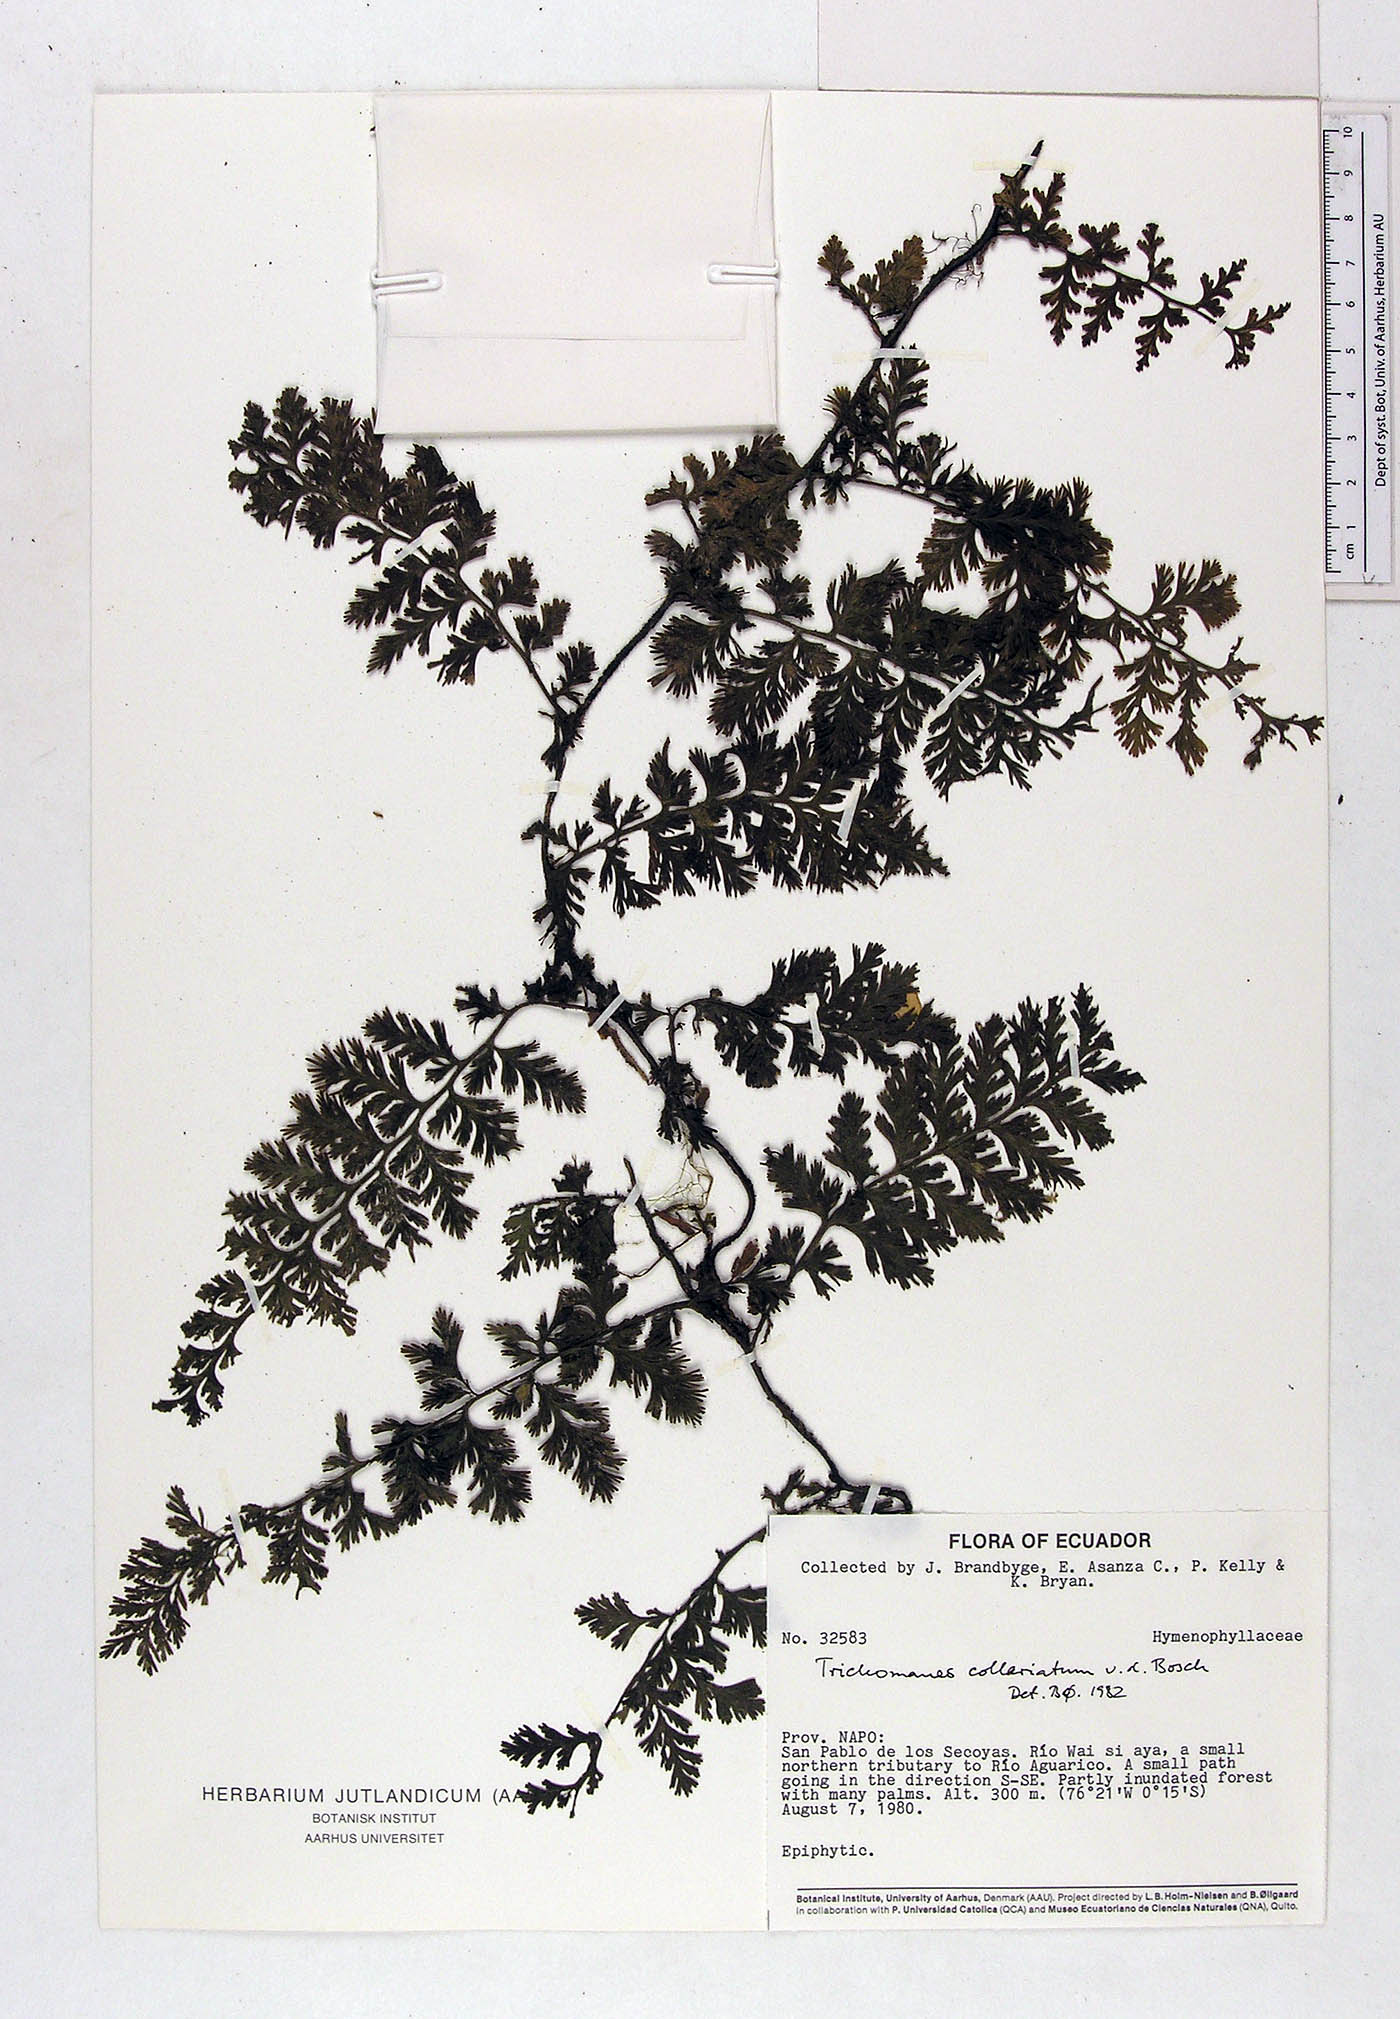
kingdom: Plantae
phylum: Tracheophyta
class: Polypodiopsida
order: Hymenophyllales
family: Hymenophyllaceae
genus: Vandenboschia
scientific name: Vandenboschia collariata
